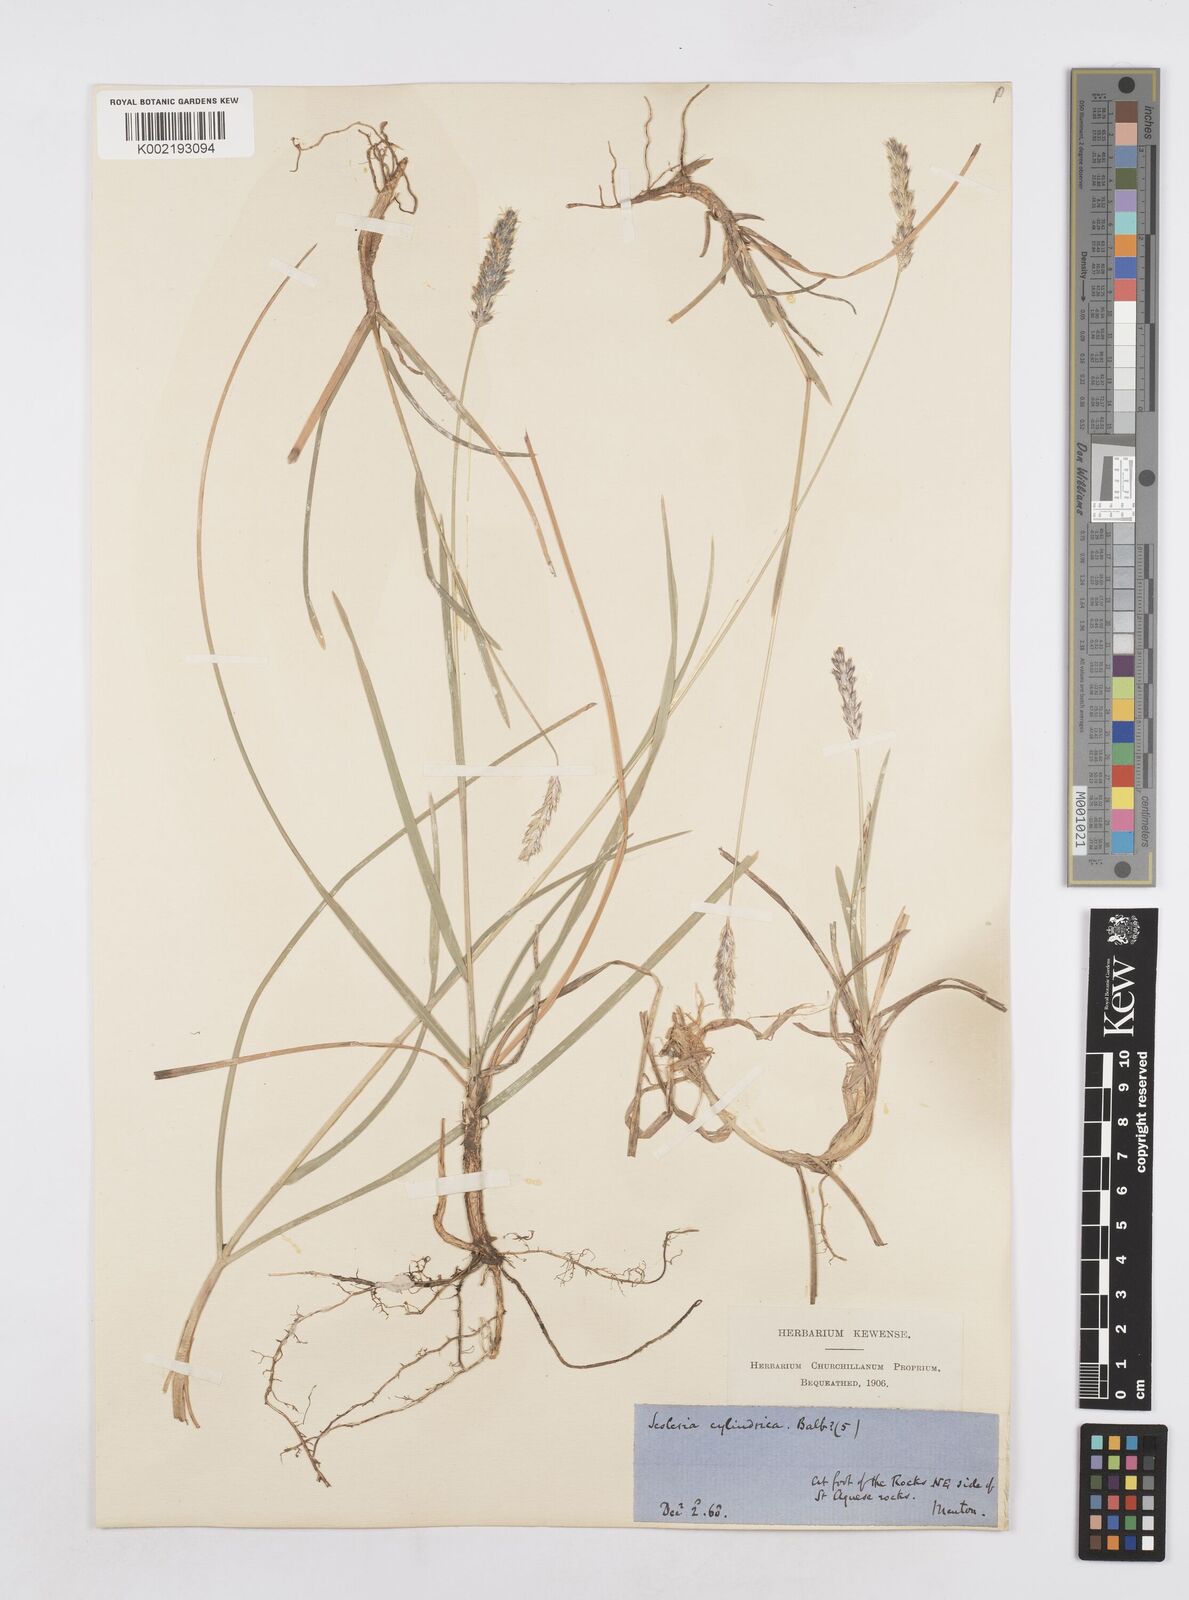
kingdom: Plantae
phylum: Tracheophyta
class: Liliopsida
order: Poales
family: Poaceae
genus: Sesleria
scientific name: Sesleria
